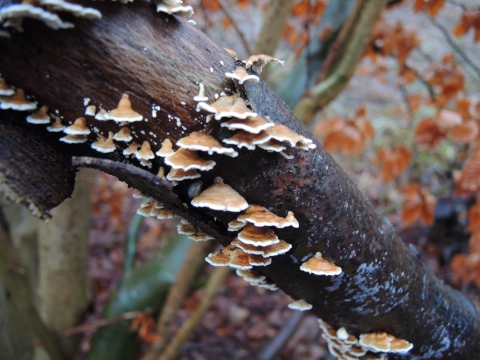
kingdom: Fungi
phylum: Basidiomycota
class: Agaricomycetes
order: Amylocorticiales
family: Amylocorticiaceae
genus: Plicaturopsis
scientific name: Plicaturopsis crispa
